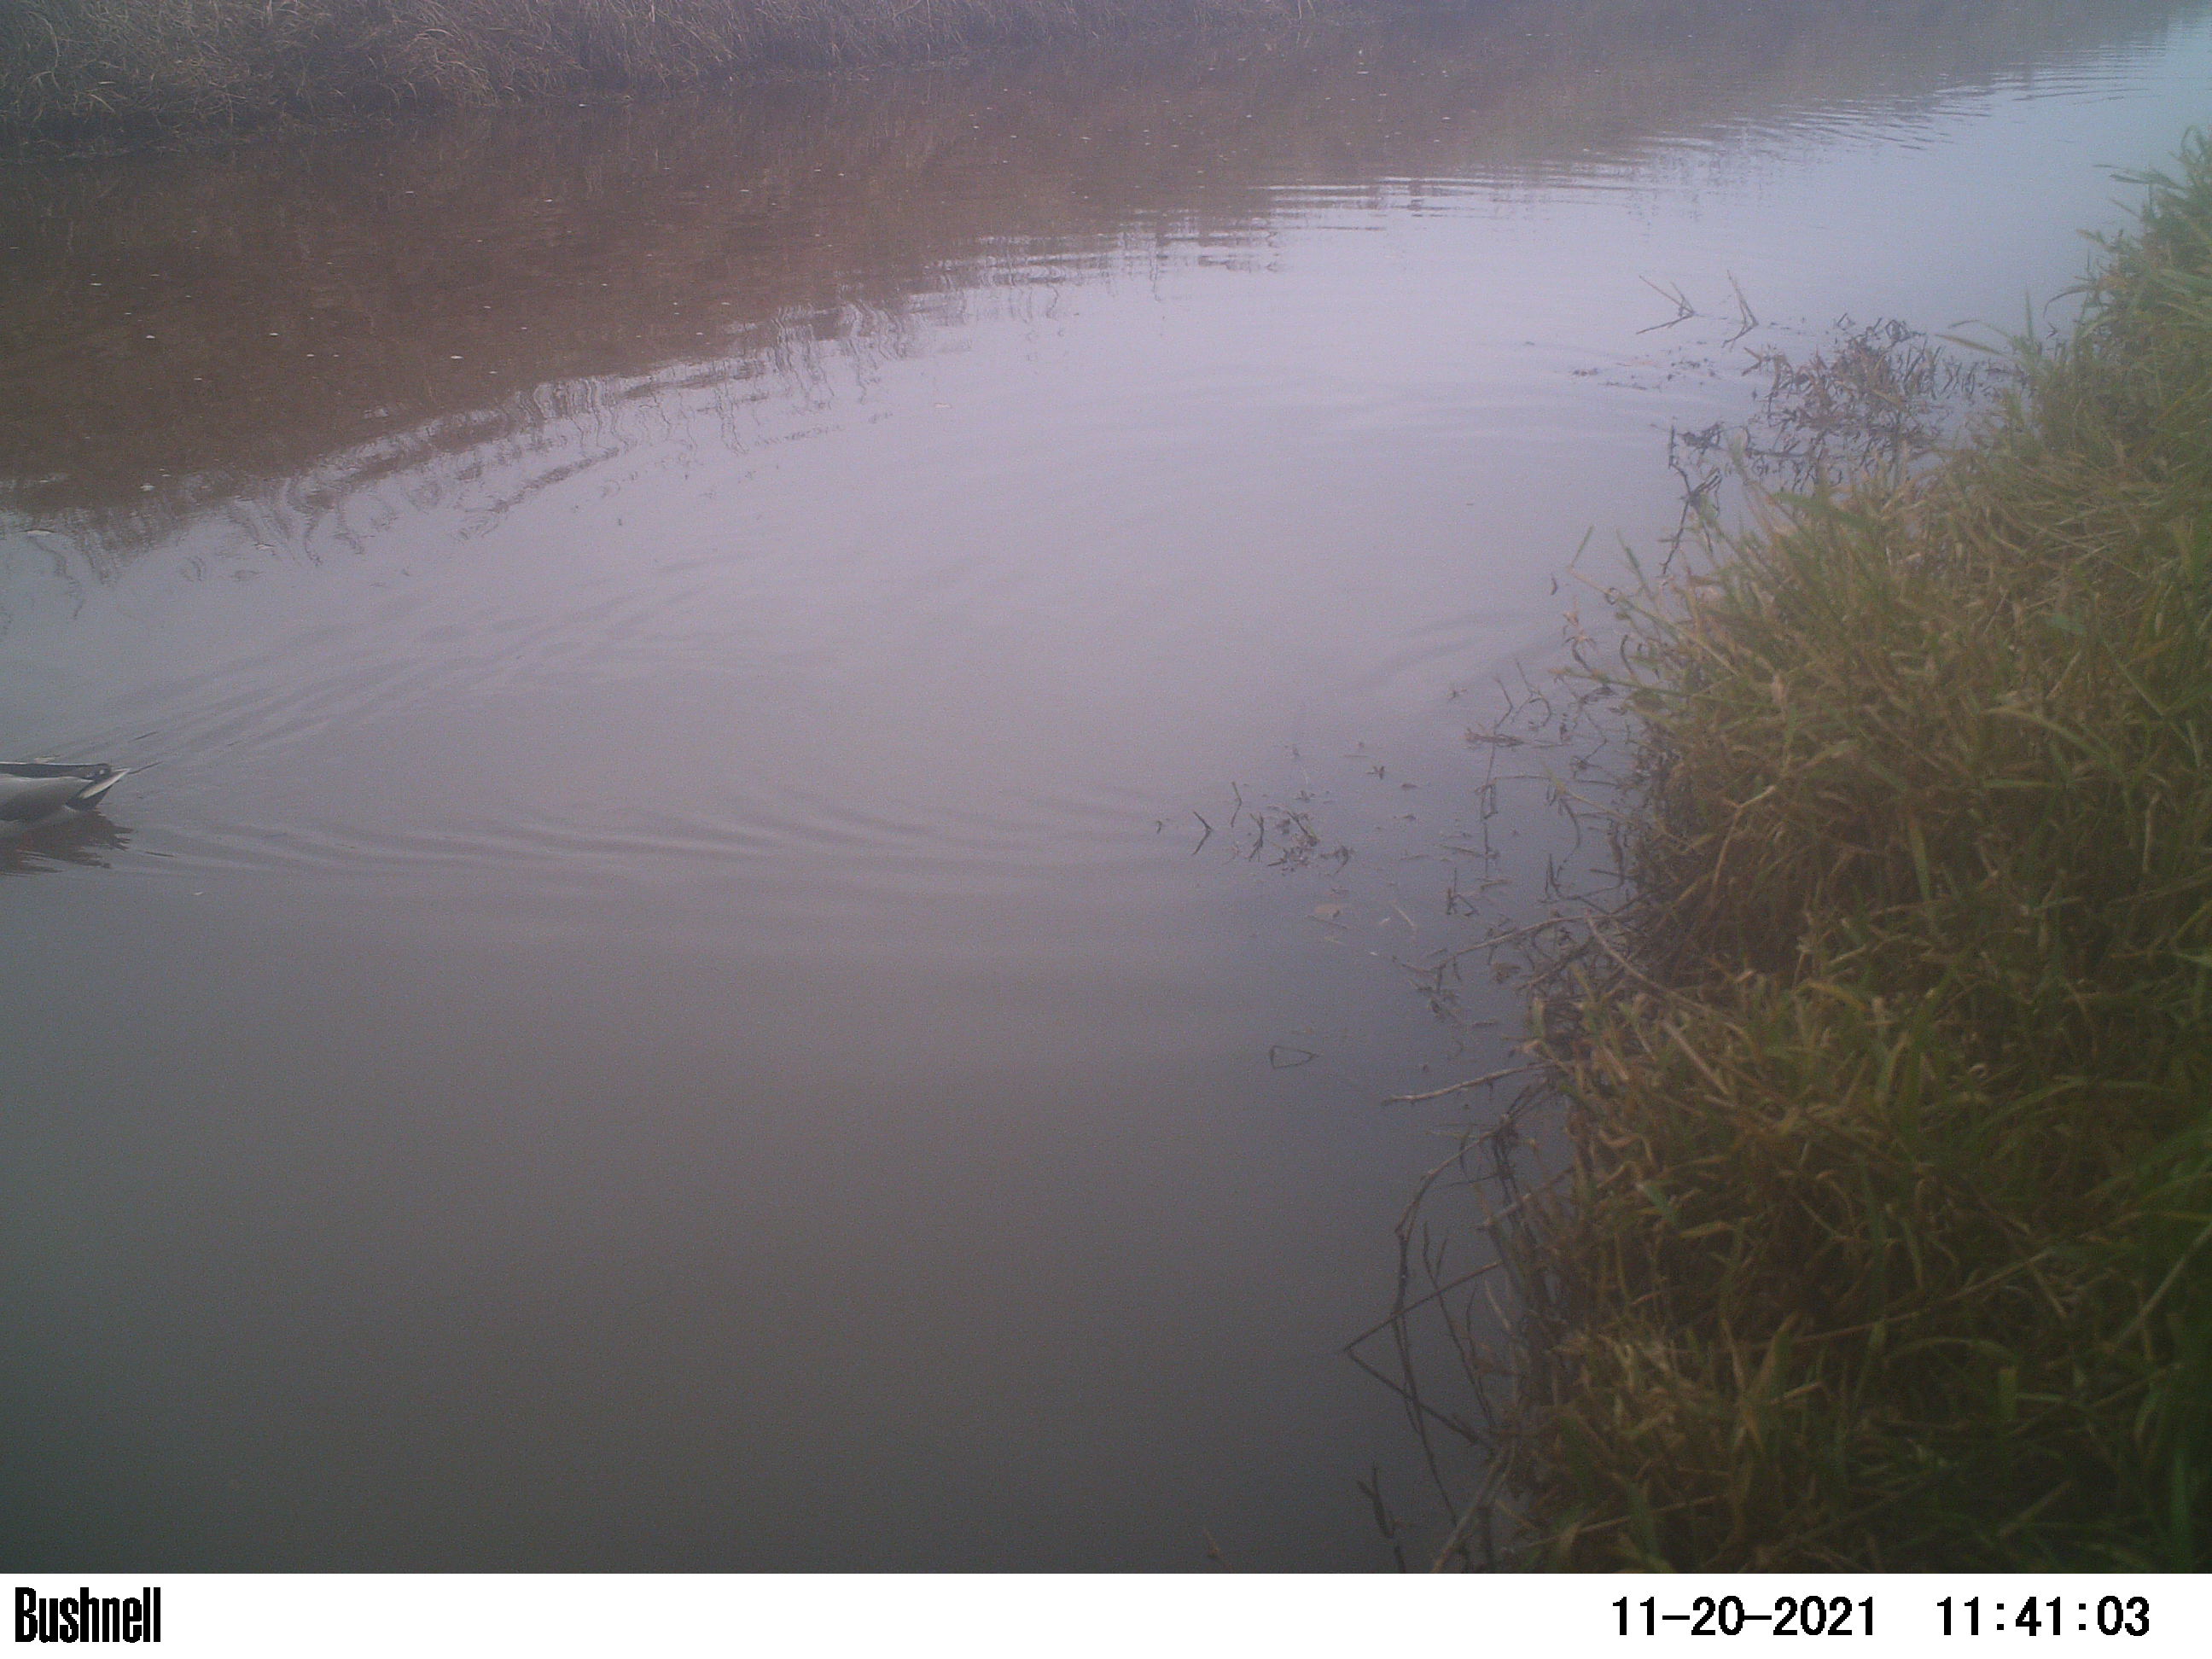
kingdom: Animalia
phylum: Chordata
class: Aves
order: Anseriformes
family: Anatidae
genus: Anas
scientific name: Anas
